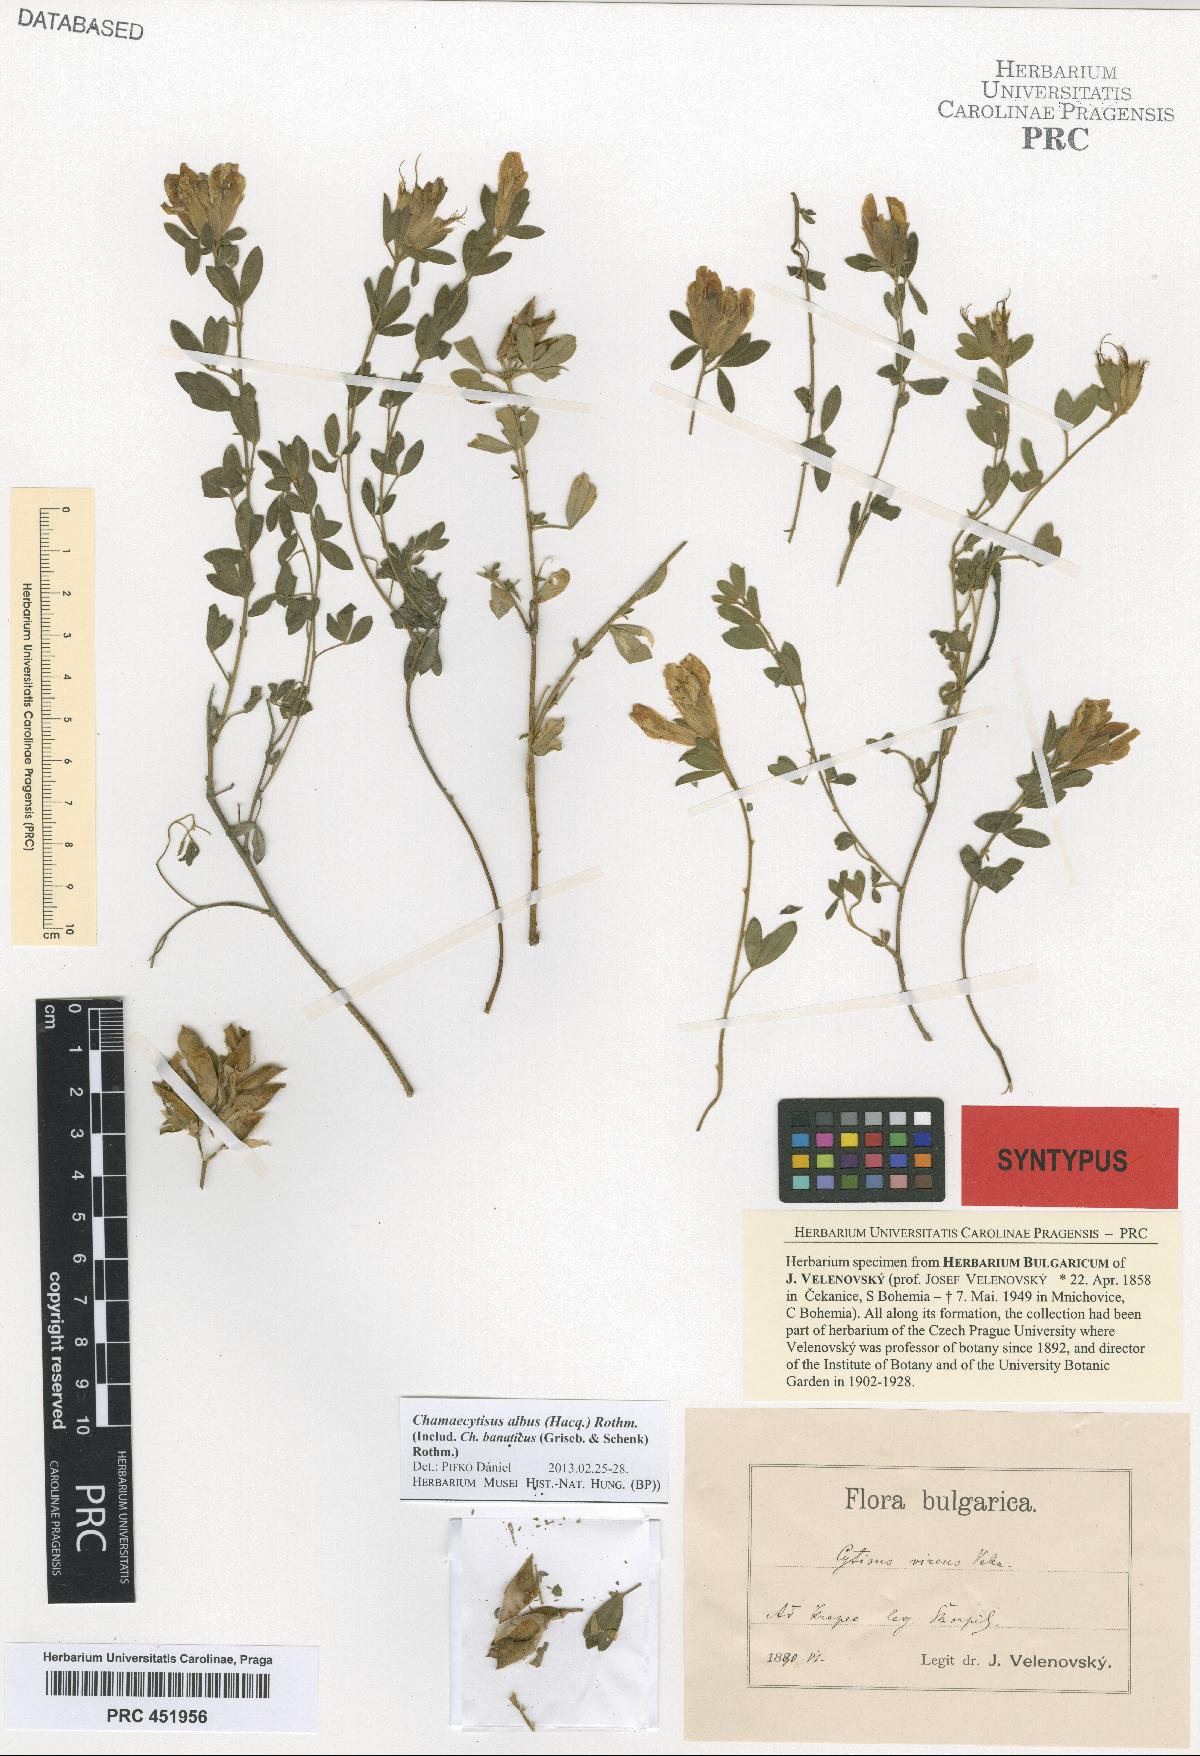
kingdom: Plantae
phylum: Tracheophyta
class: Magnoliopsida
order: Fabales
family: Fabaceae
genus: Chamaecytisus
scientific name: Chamaecytisus albus
